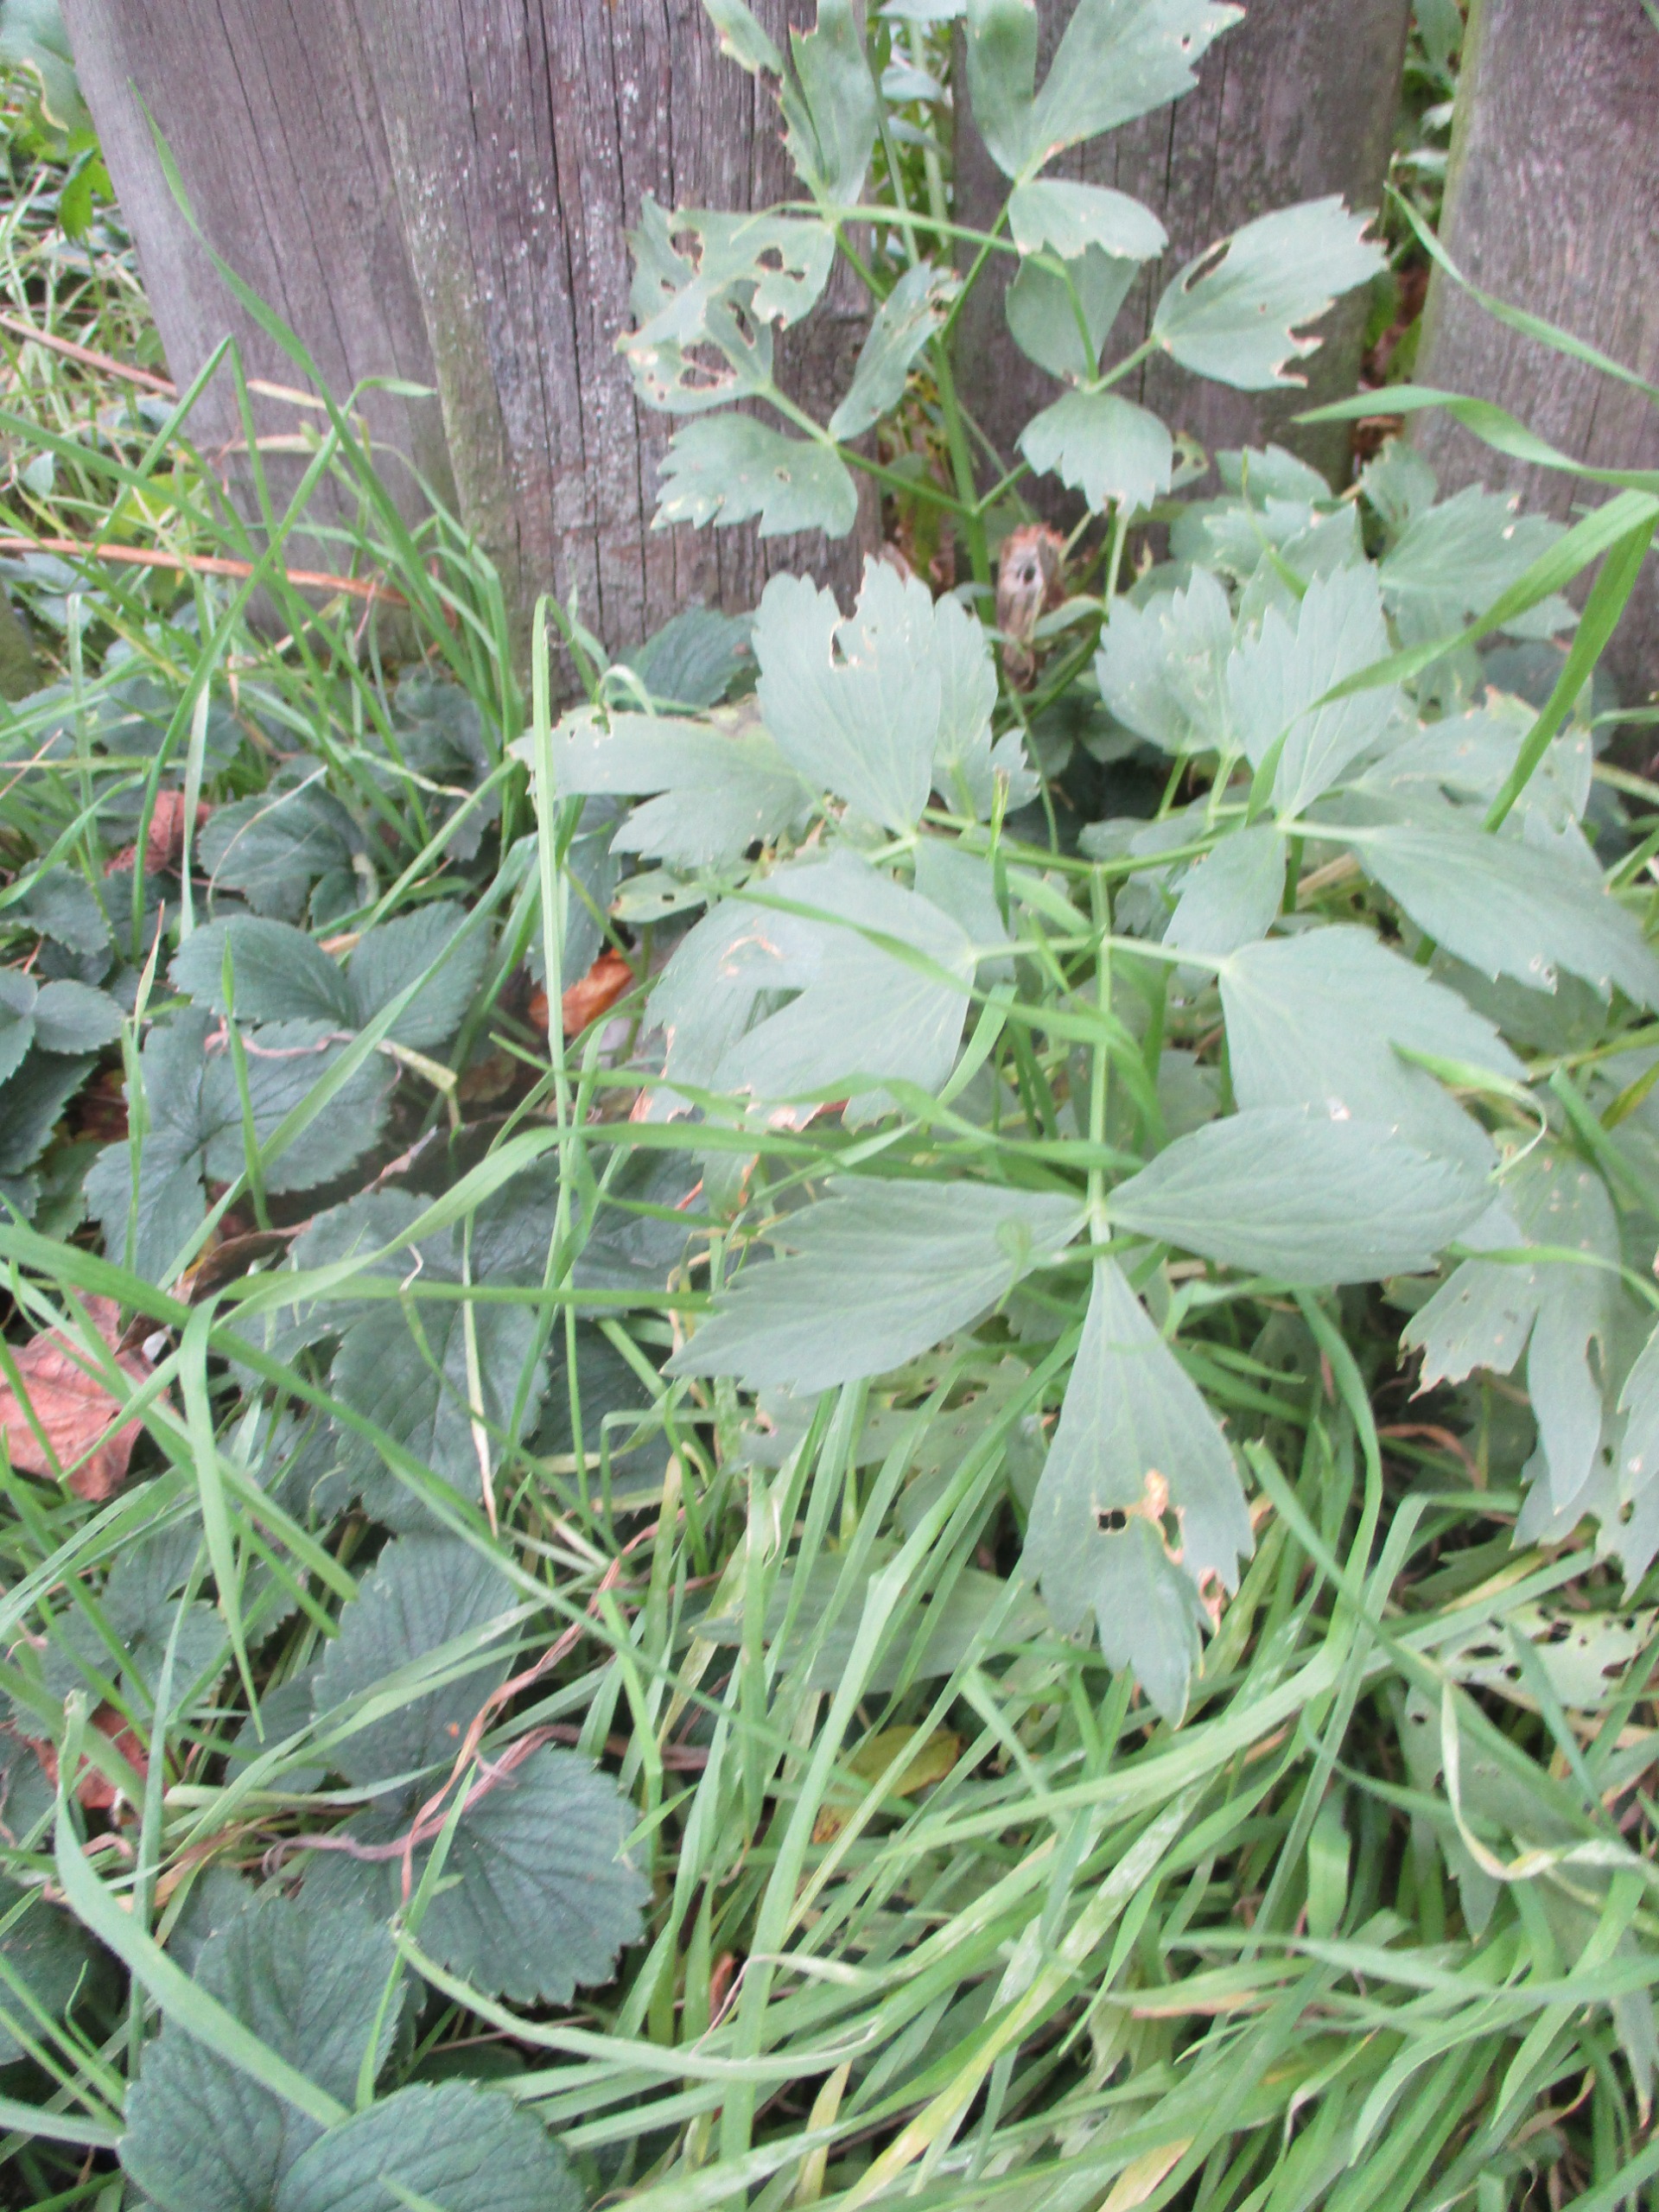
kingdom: Plantae
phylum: Tracheophyta
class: Magnoliopsida
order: Apiales
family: Apiaceae
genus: Levisticum
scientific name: Levisticum officinale
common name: Løvstikke
